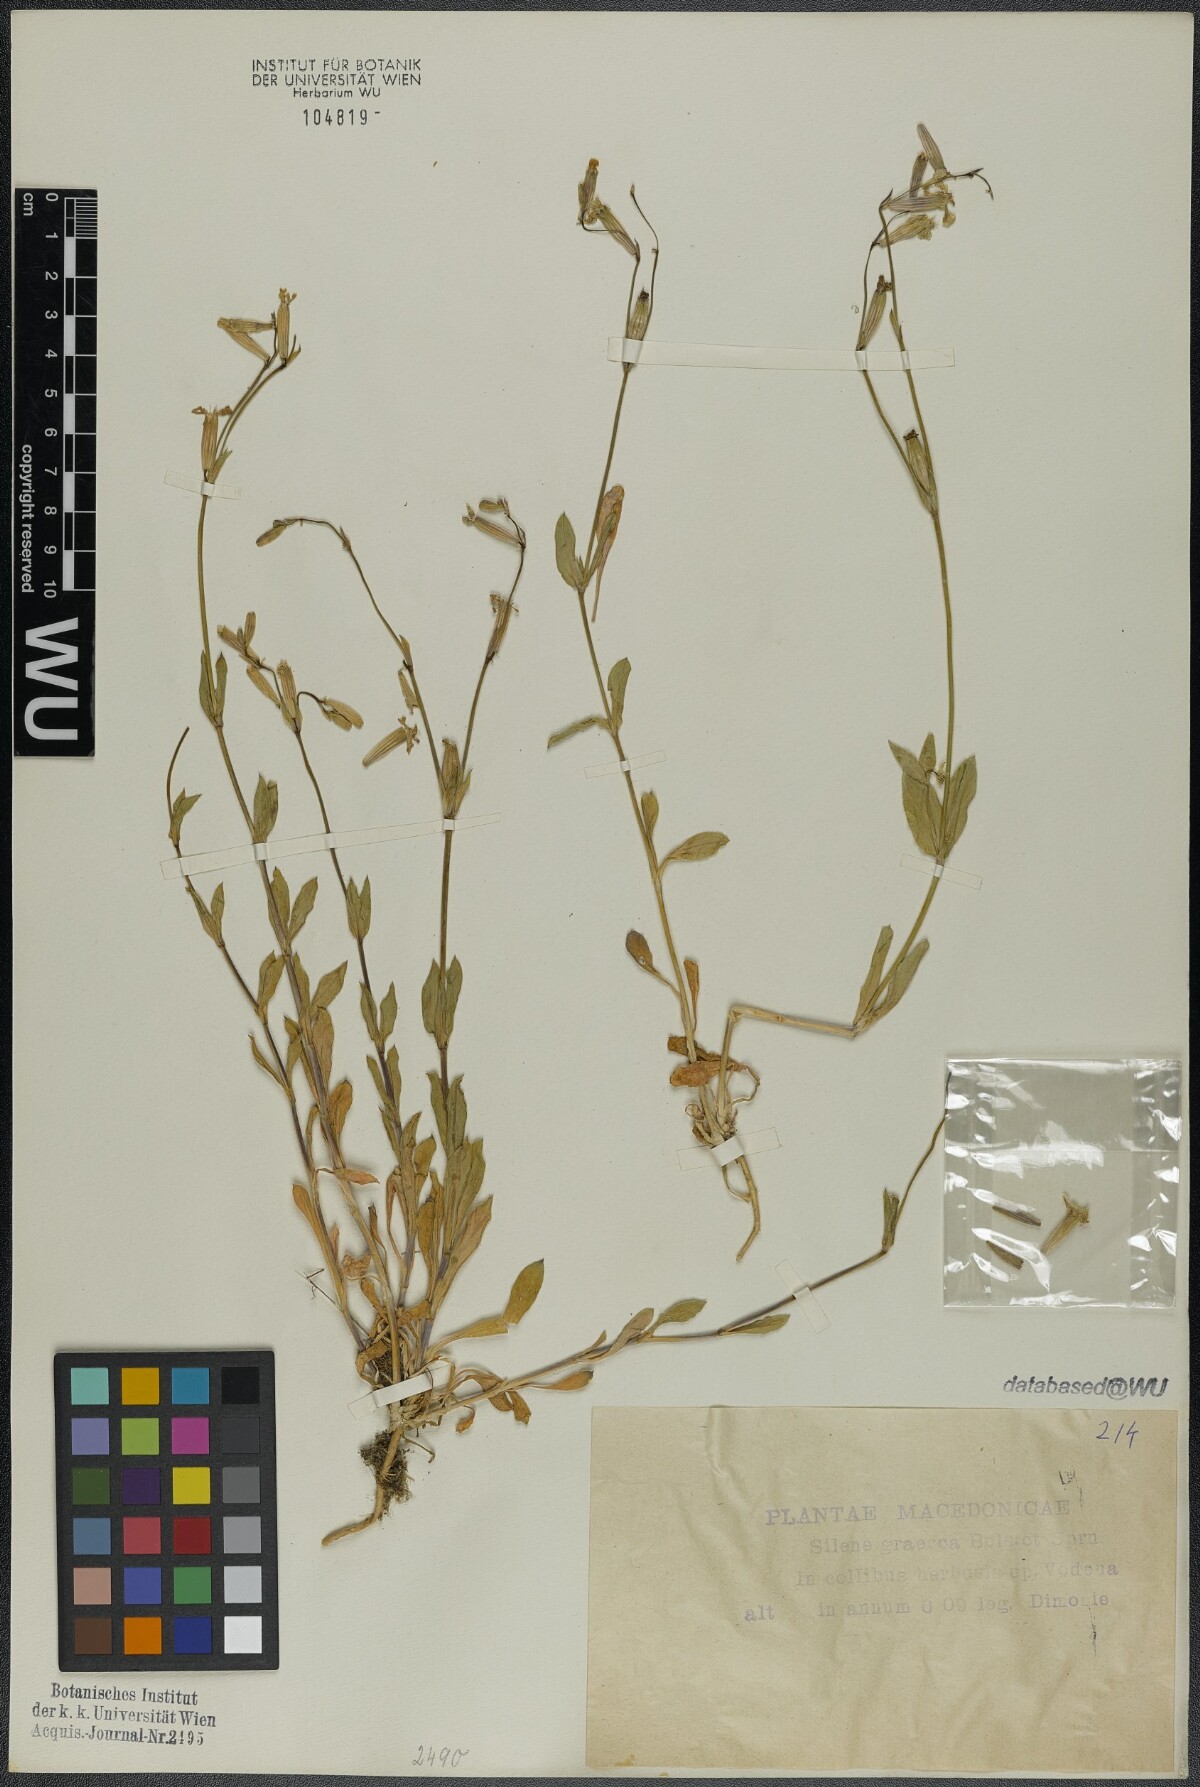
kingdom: Plantae
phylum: Tracheophyta
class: Magnoliopsida
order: Caryophyllales
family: Caryophyllaceae
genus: Silene
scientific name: Silene graeca
